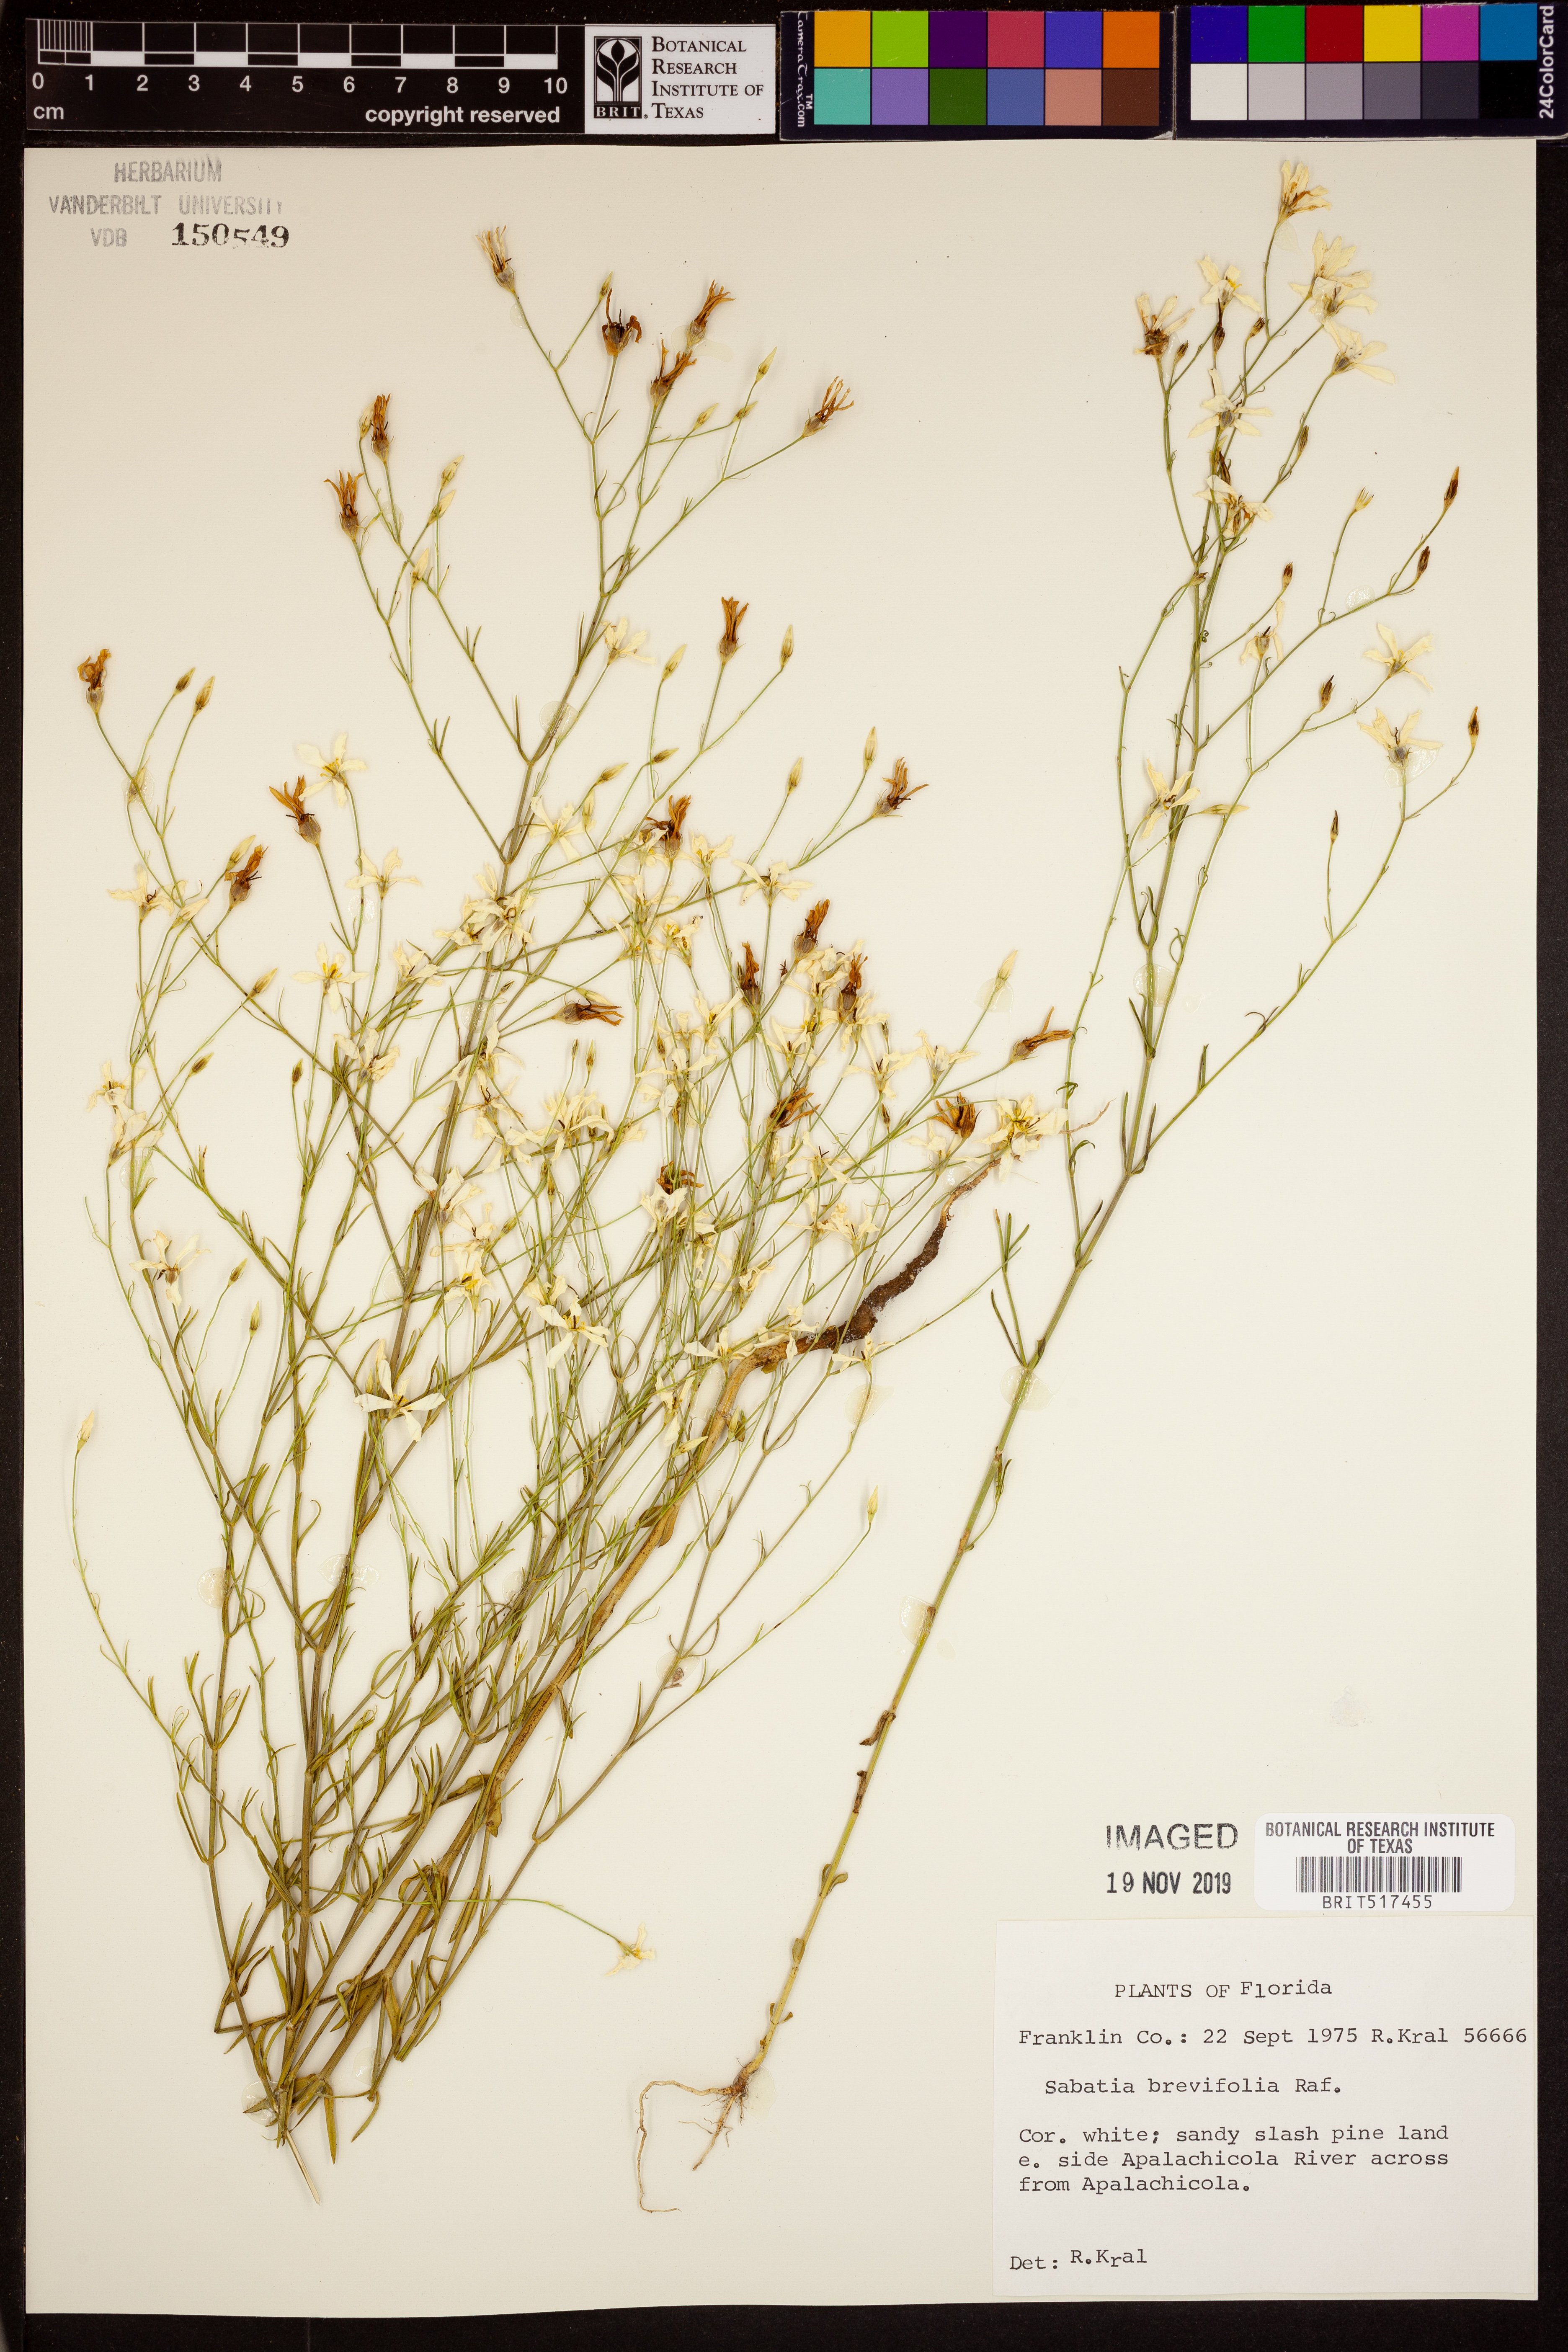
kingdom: Plantae
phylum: Tracheophyta
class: Magnoliopsida
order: Gentianales
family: Gentianaceae
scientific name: Gentianaceae
